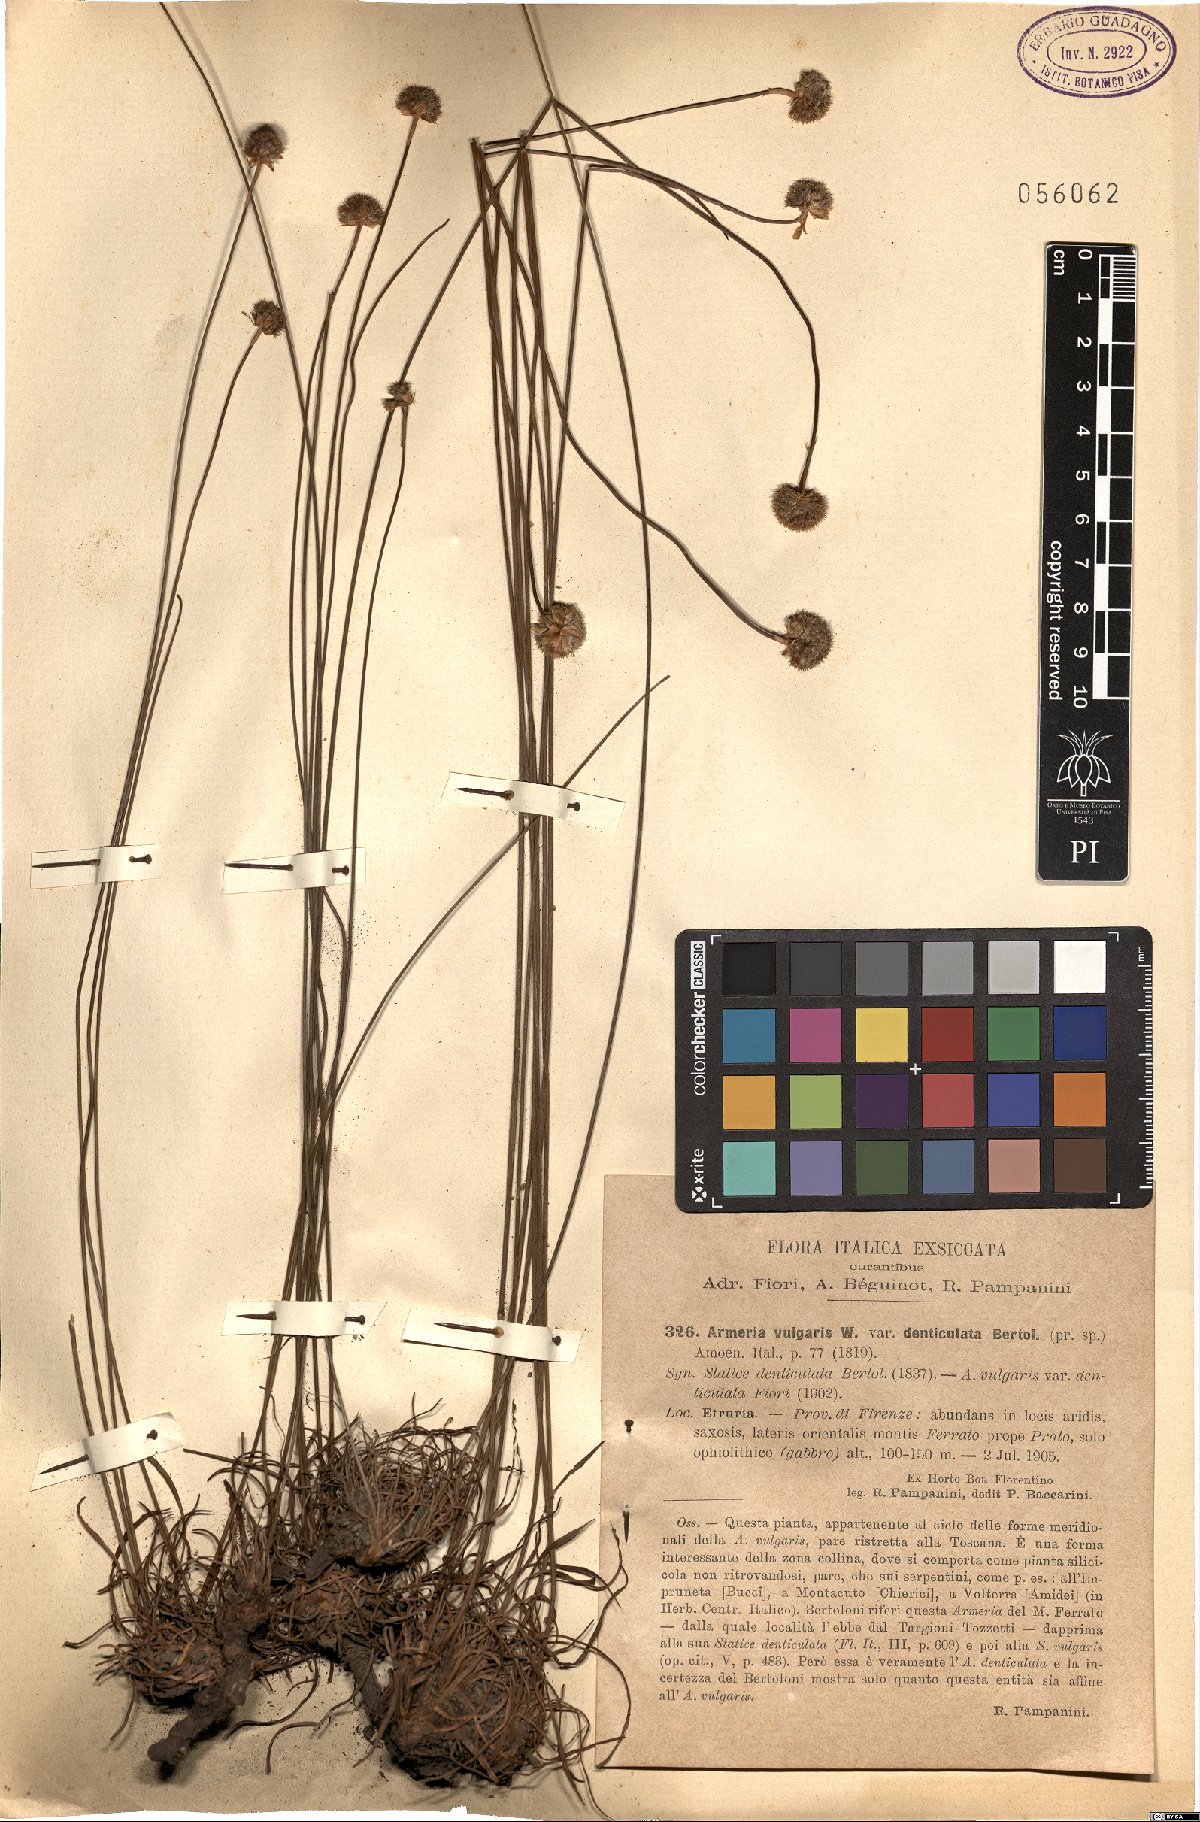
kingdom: Plantae
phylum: Tracheophyta
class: Magnoliopsida
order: Caryophyllales
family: Plumbaginaceae
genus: Armeria
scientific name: Armeria
